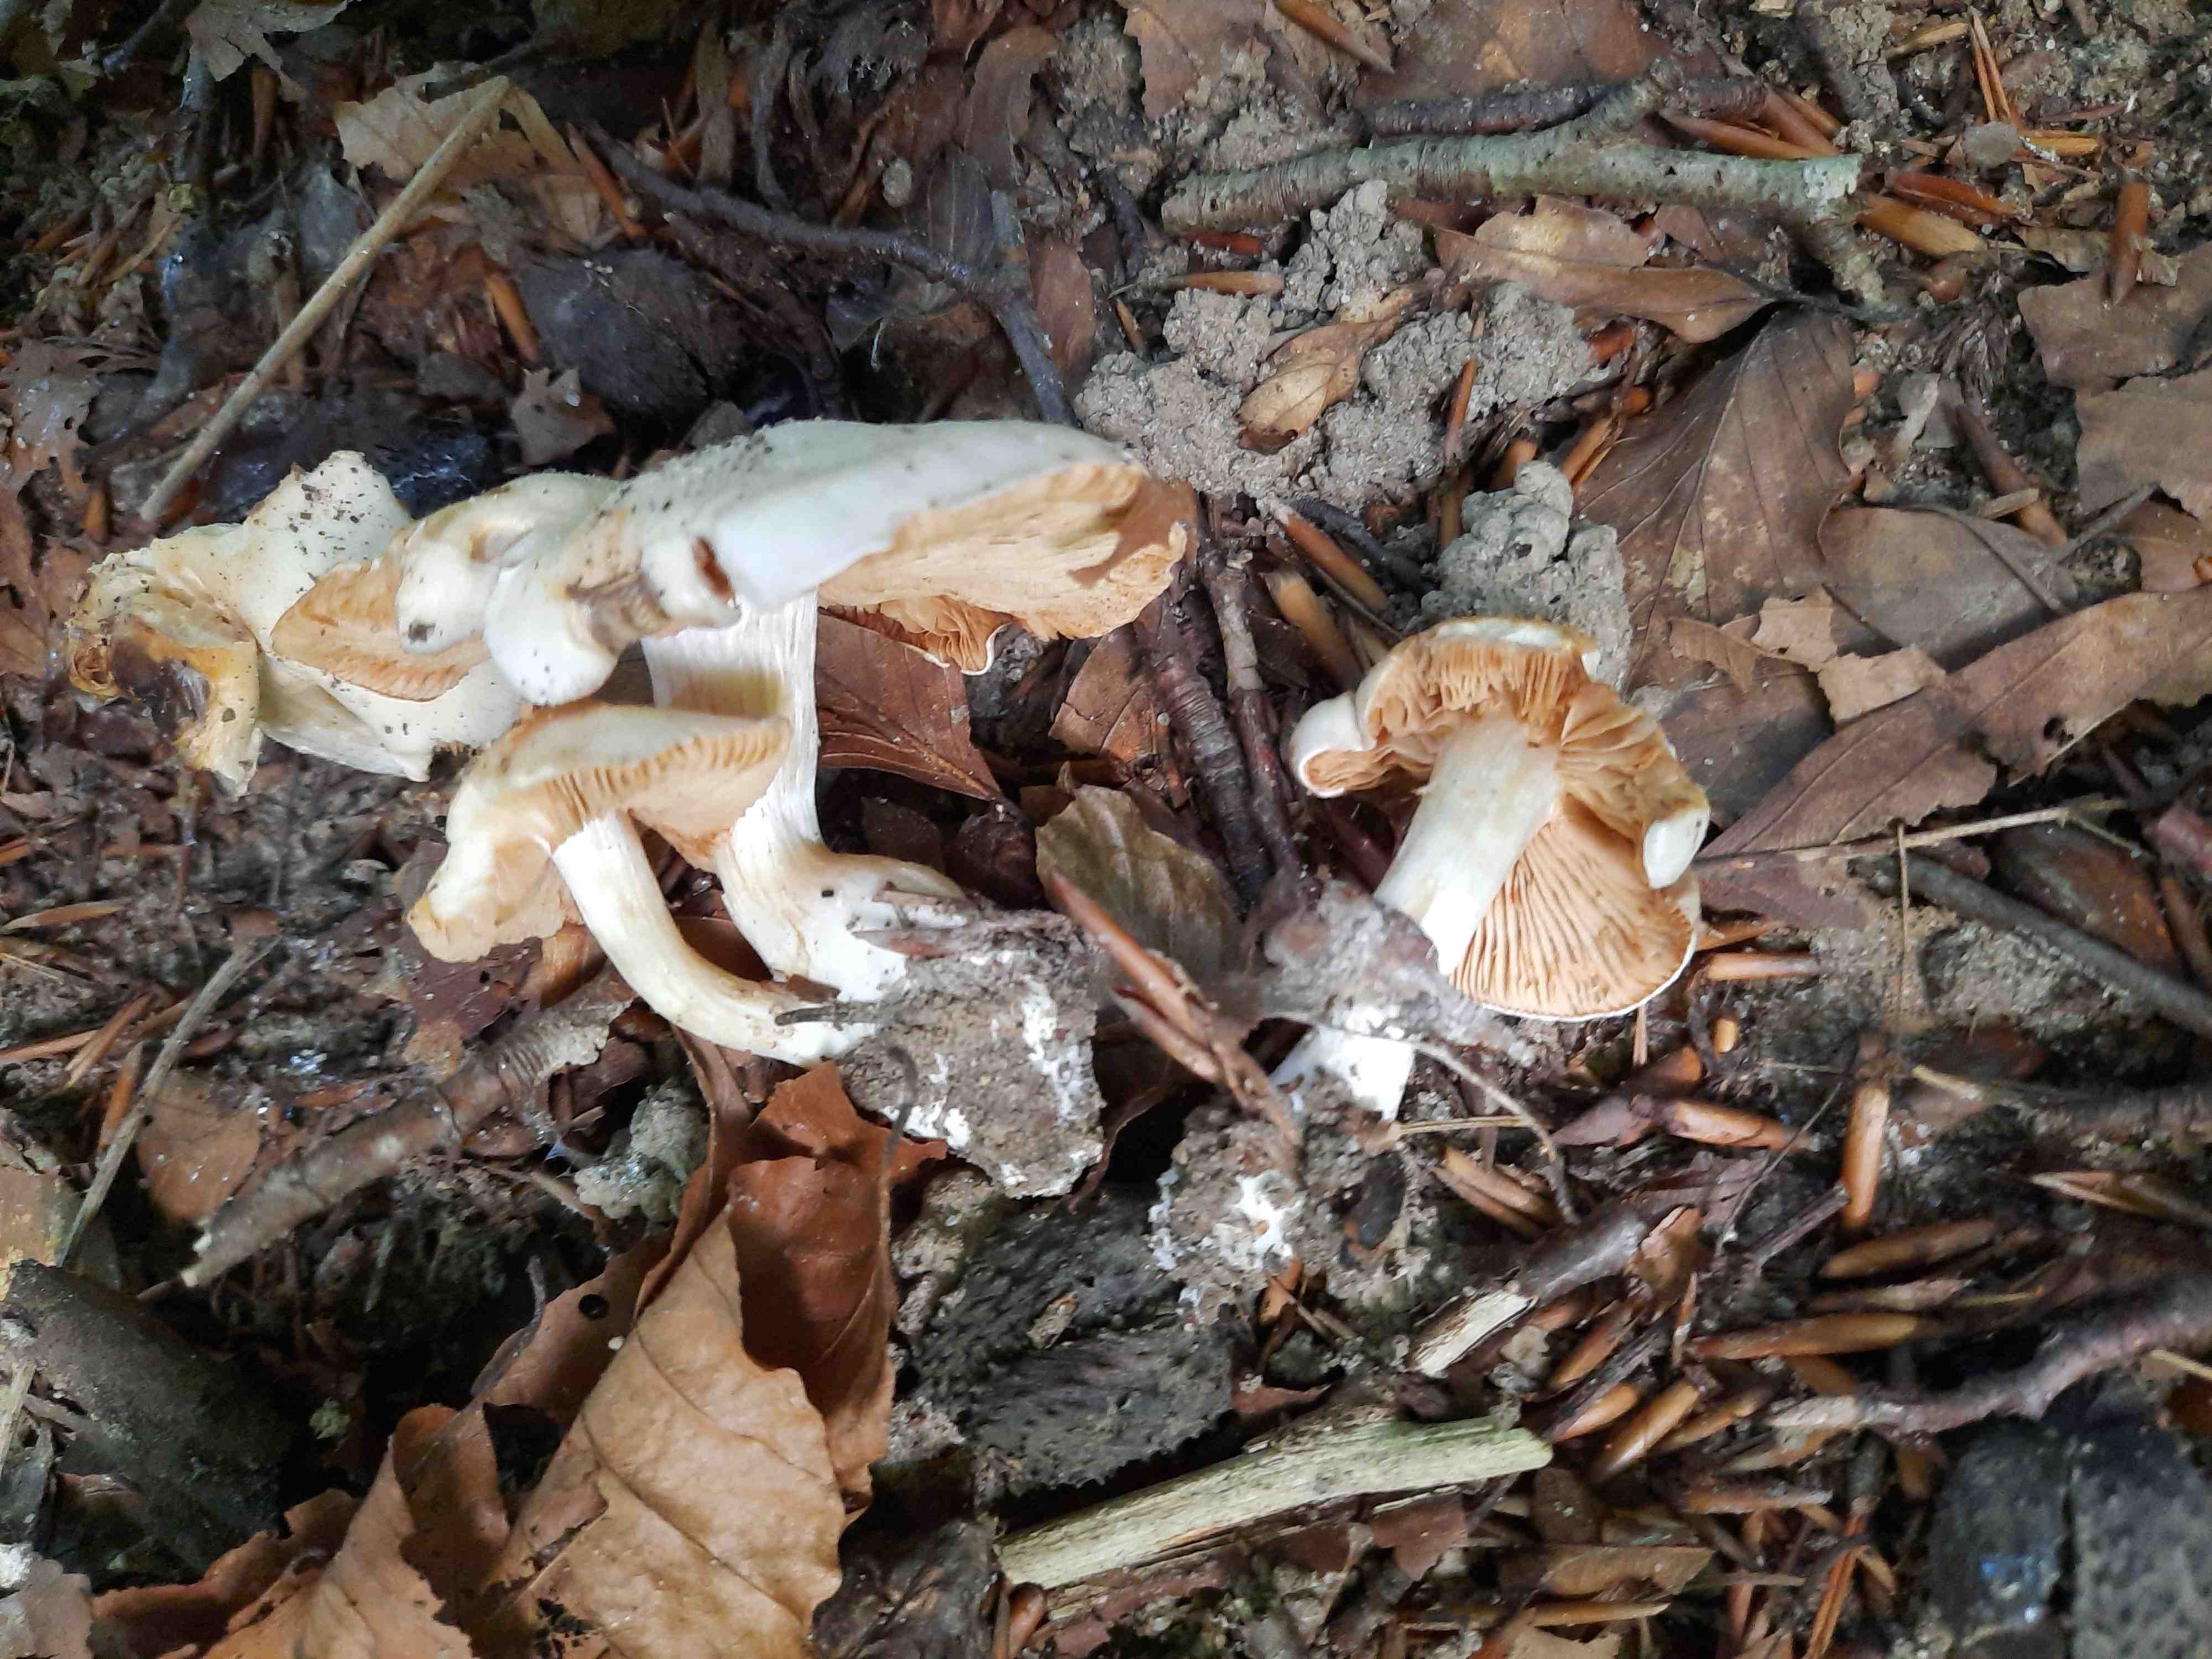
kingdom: Fungi
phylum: Basidiomycota
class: Agaricomycetes
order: Agaricales
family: Cortinariaceae
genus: Thaxterogaster
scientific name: Thaxterogaster barbatus
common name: elfenbens-slørhat
